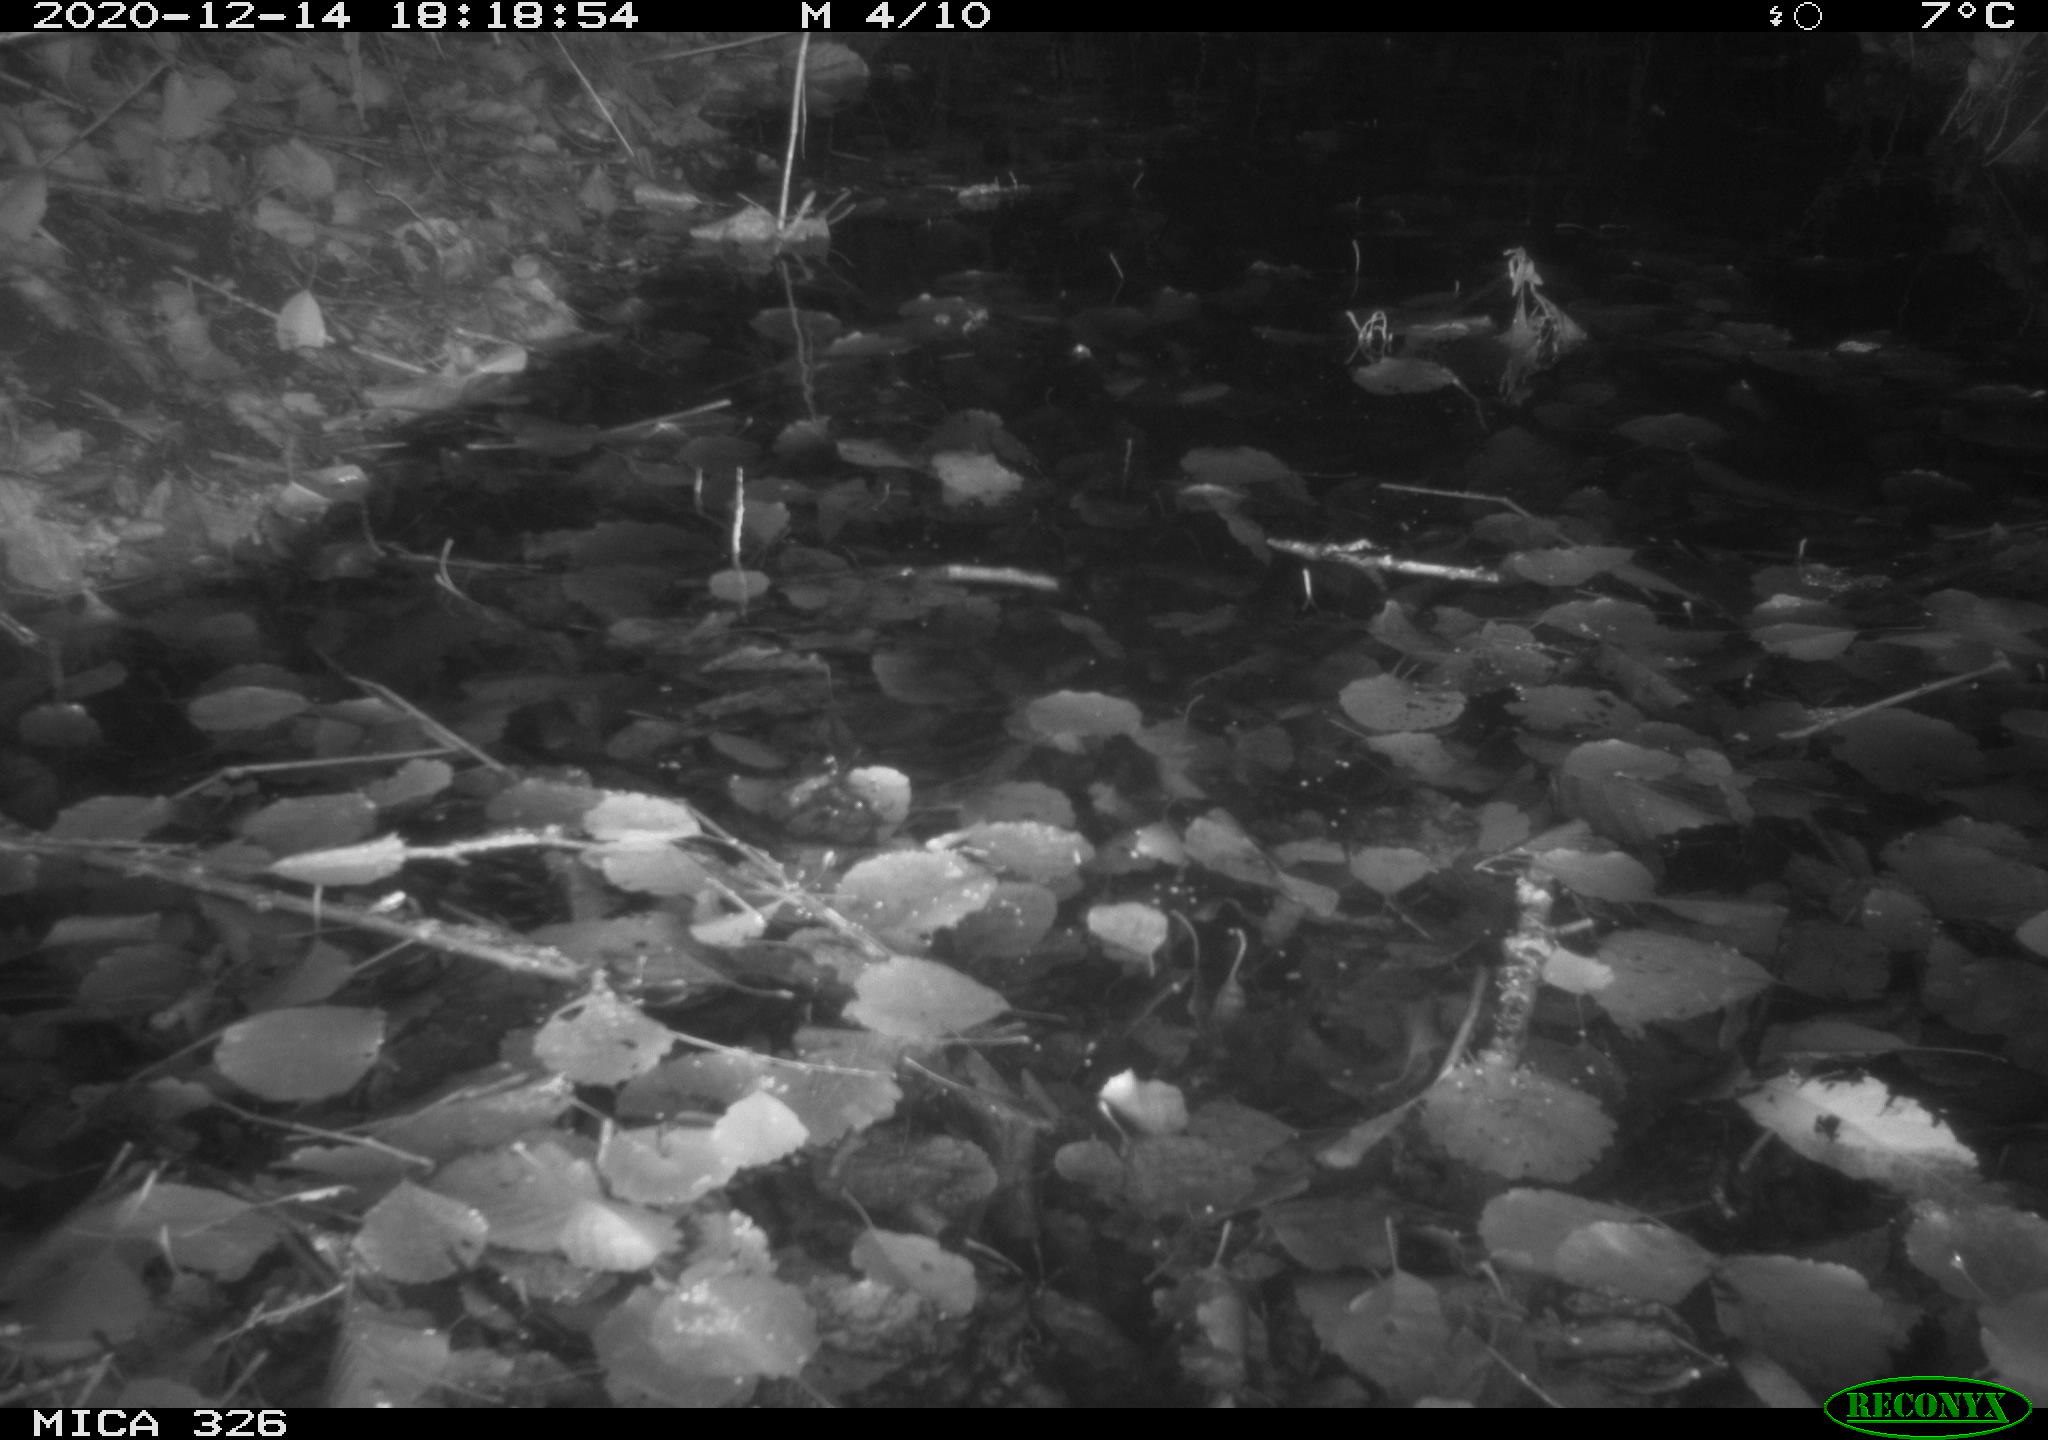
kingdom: Animalia
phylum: Chordata
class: Mammalia
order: Rodentia
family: Cricetidae
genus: Ondatra
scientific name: Ondatra zibethicus
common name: Muskrat
